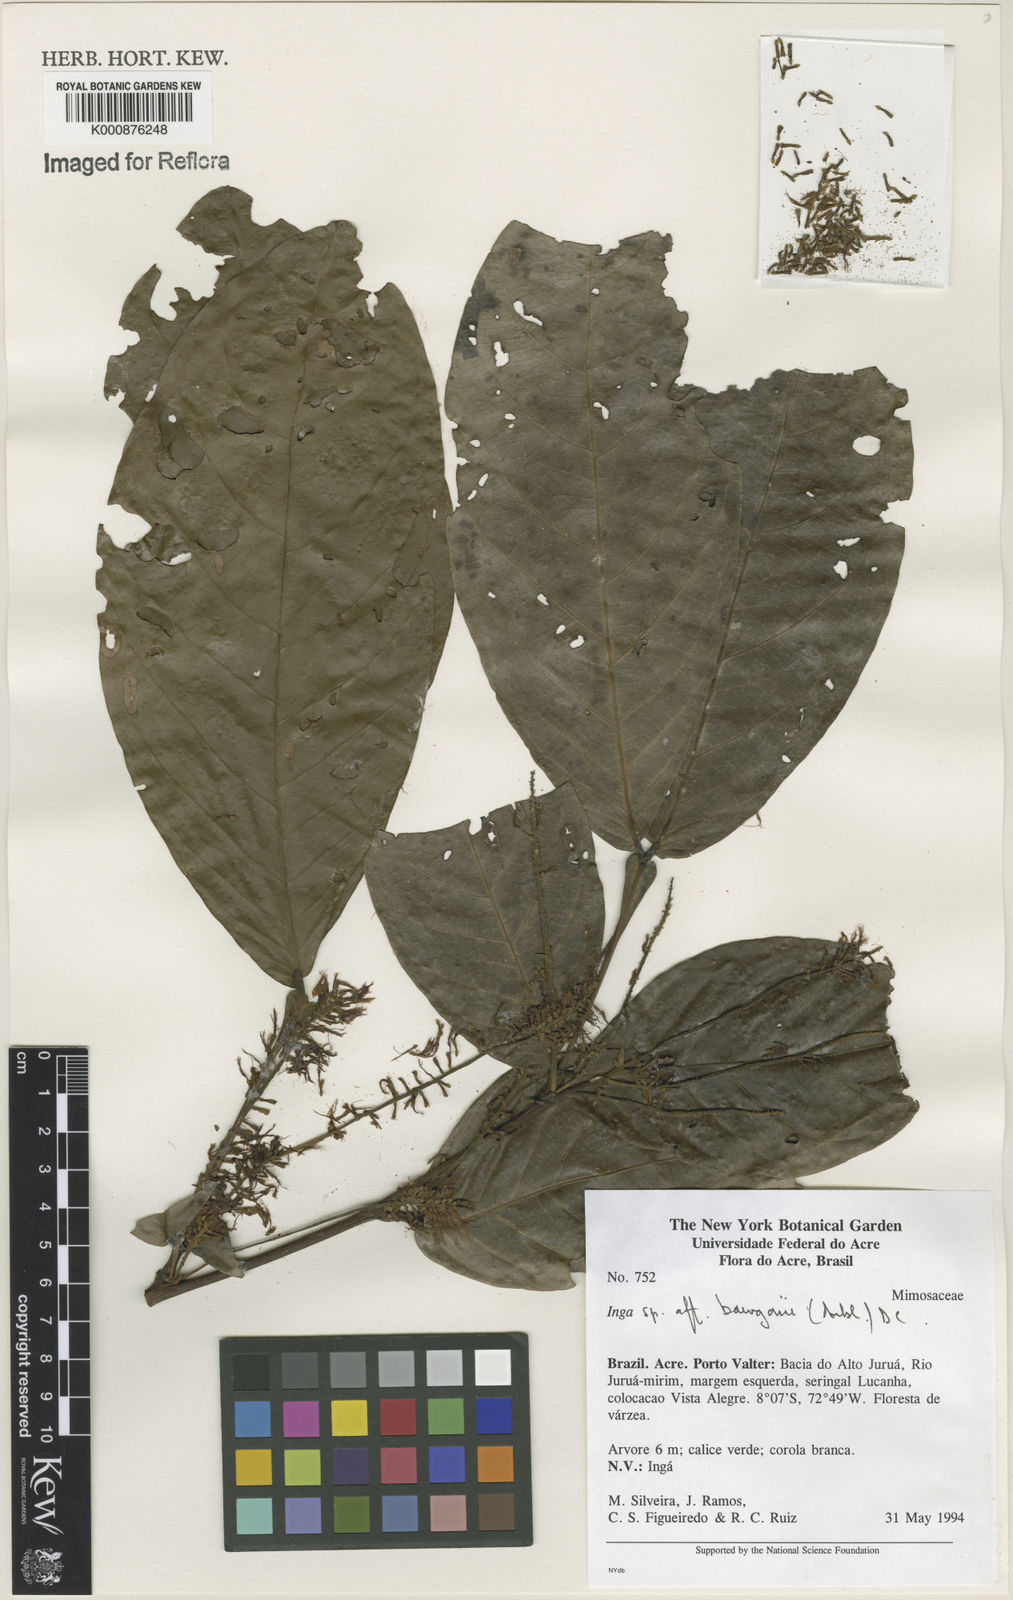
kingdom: Plantae
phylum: Tracheophyta
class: Magnoliopsida
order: Fabales
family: Fabaceae
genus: Inga
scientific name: Inga bourgoni
